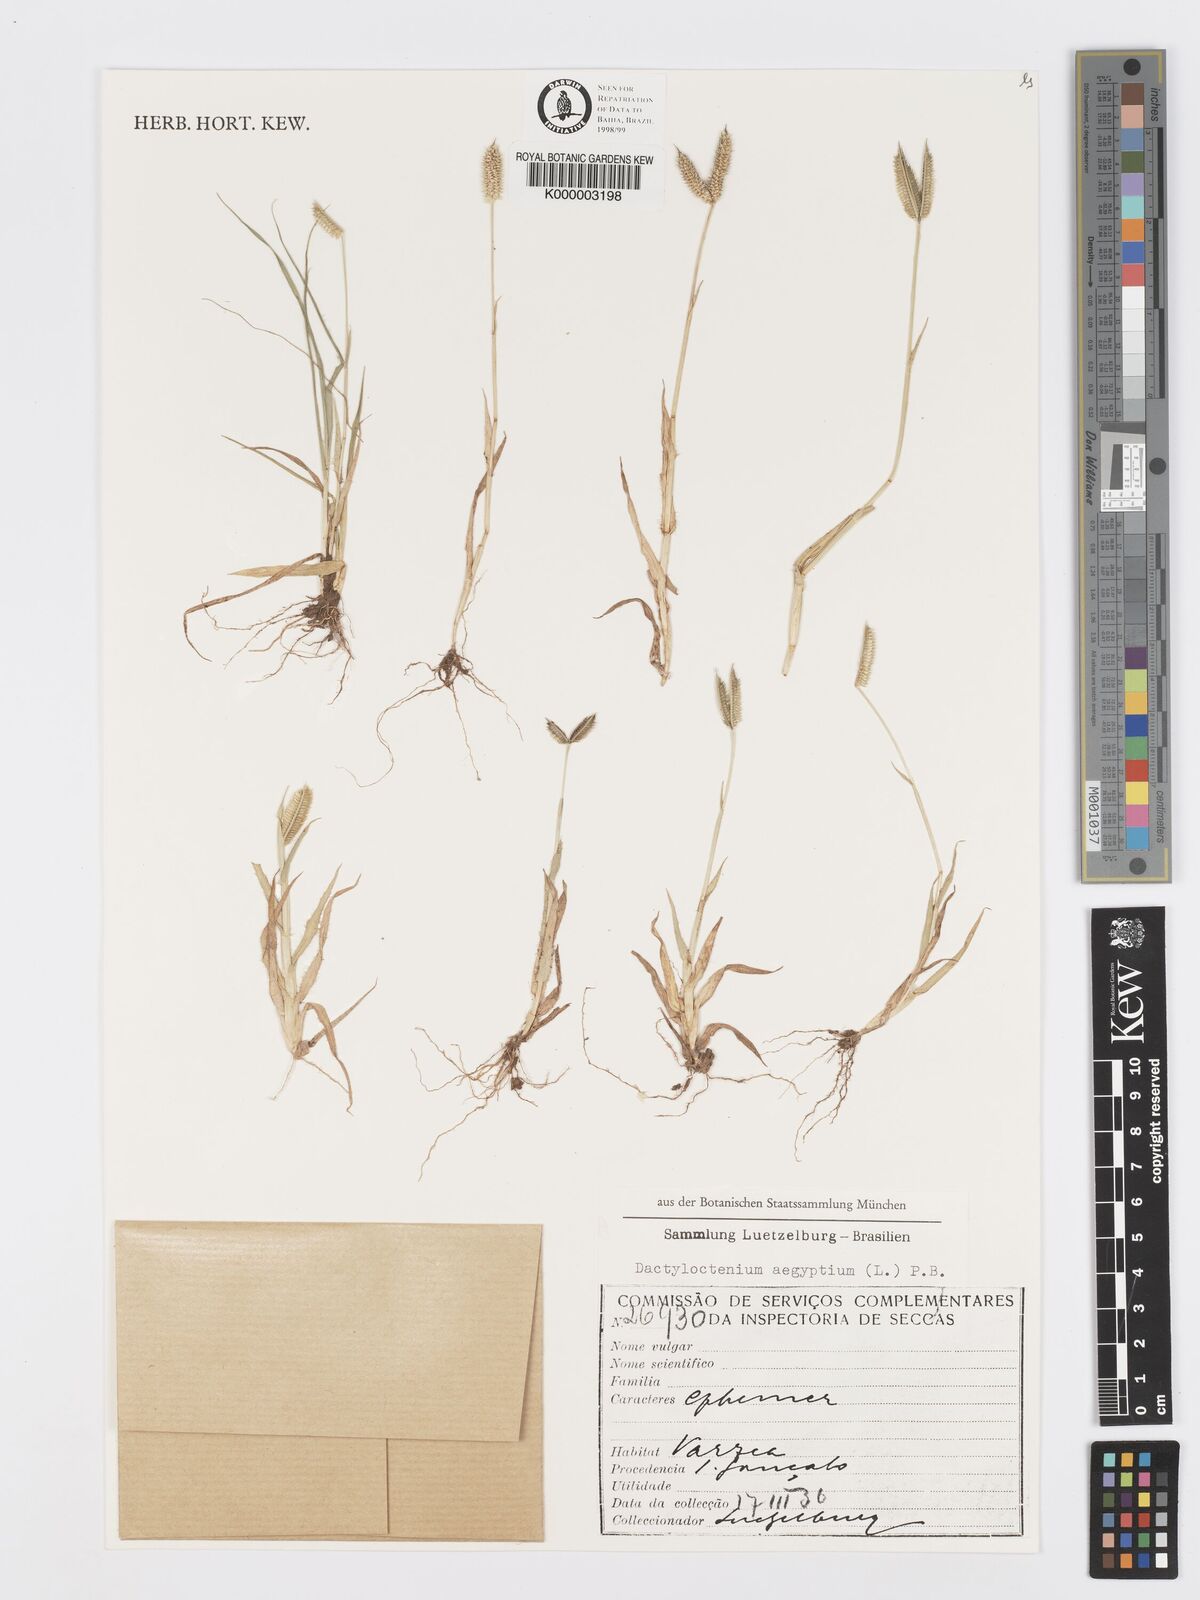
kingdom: Plantae
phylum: Tracheophyta
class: Liliopsida
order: Poales
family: Poaceae
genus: Dactyloctenium
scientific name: Dactyloctenium aegyptium
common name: Egyptian grass
